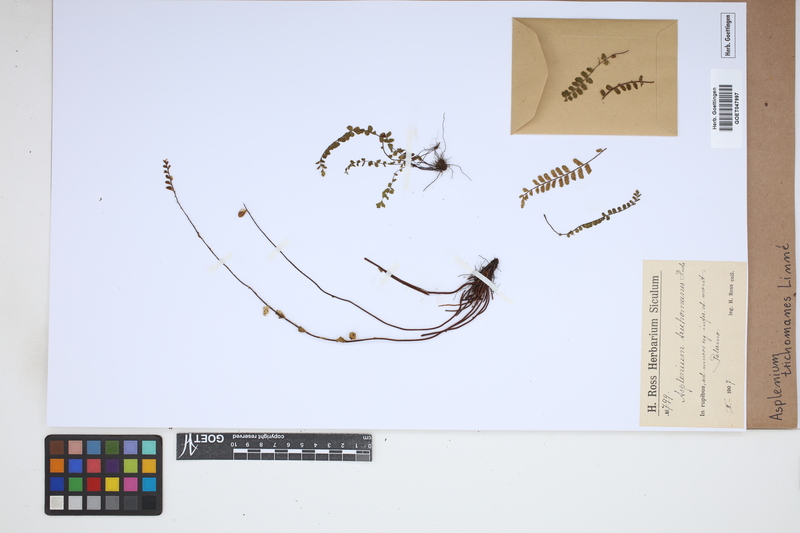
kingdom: Plantae
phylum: Tracheophyta
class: Polypodiopsida
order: Polypodiales
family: Aspleniaceae
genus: Asplenium
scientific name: Asplenium trichomanes
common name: Maidenhair spleenwort
